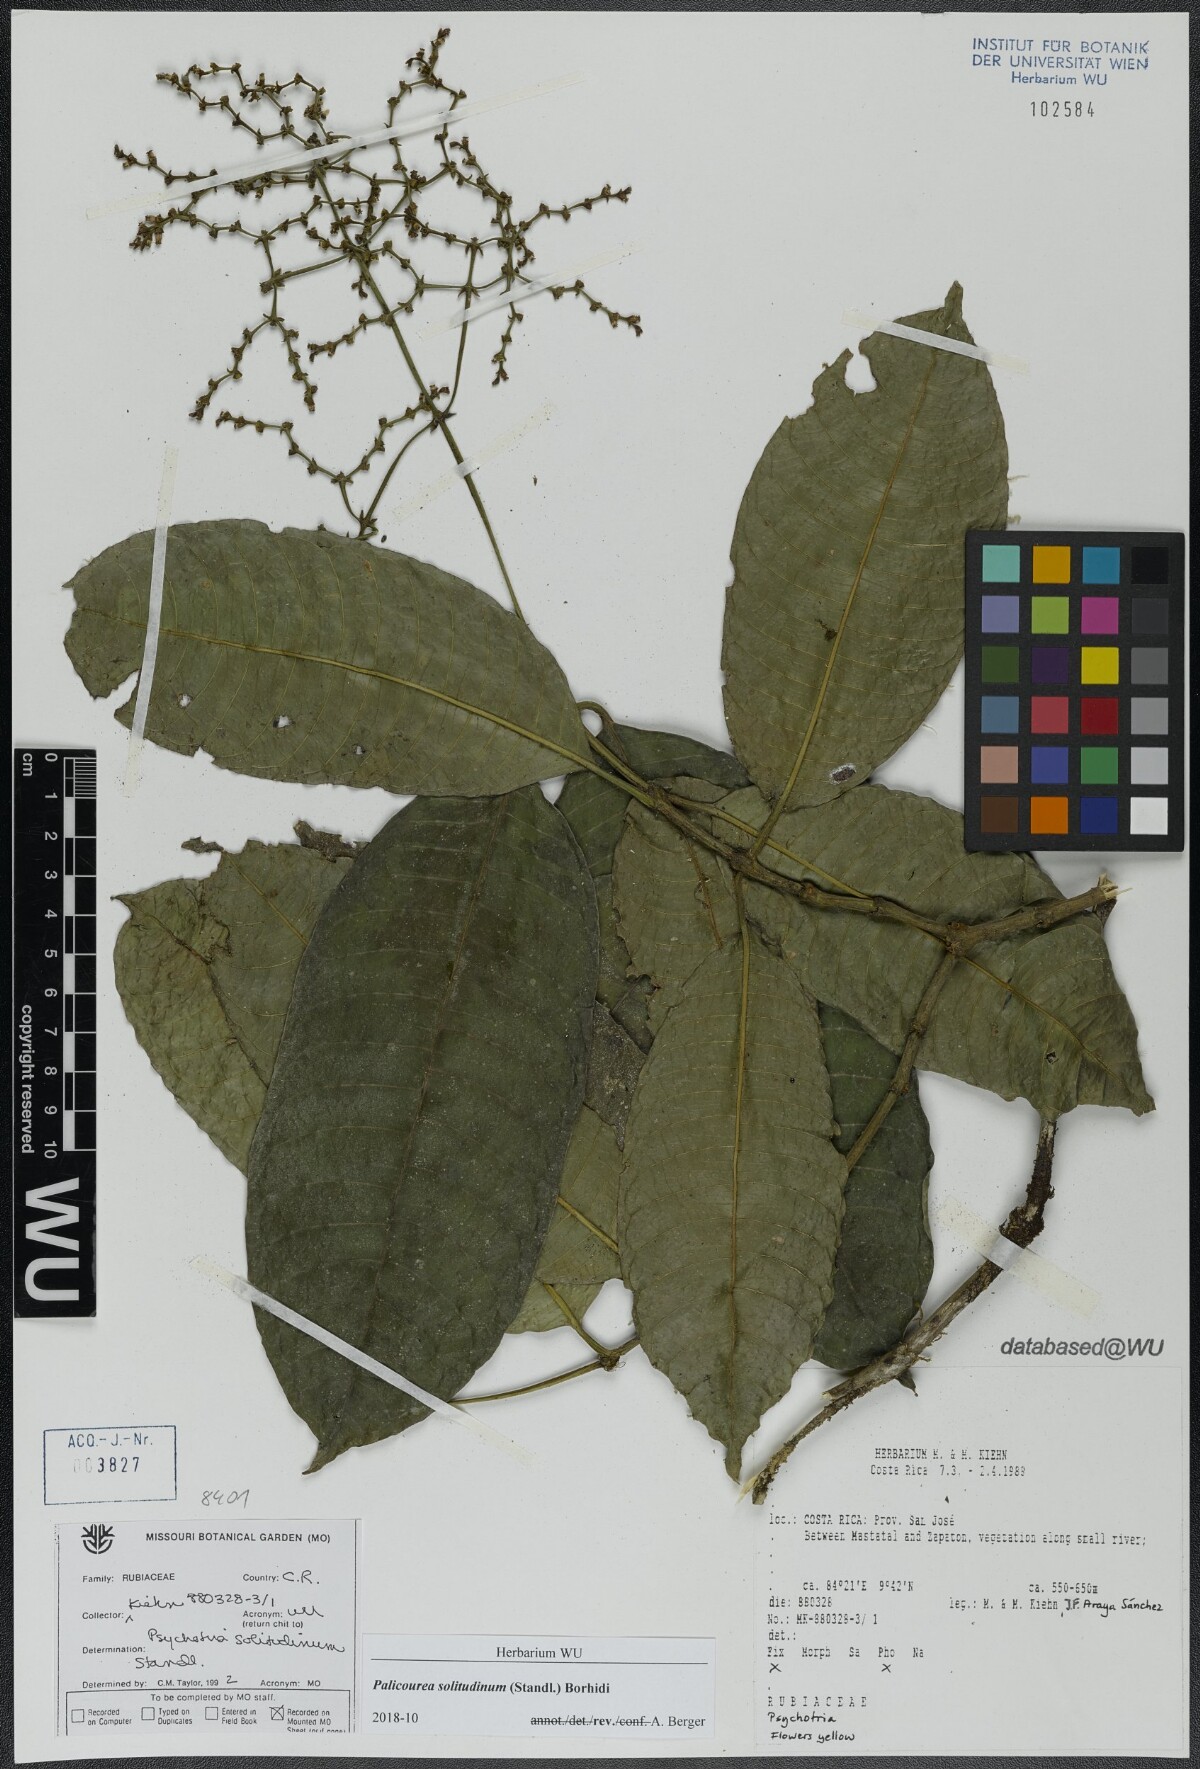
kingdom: Plantae
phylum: Tracheophyta
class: Magnoliopsida
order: Gentianales
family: Rubiaceae
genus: Palicourea
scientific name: Palicourea solitudinum
